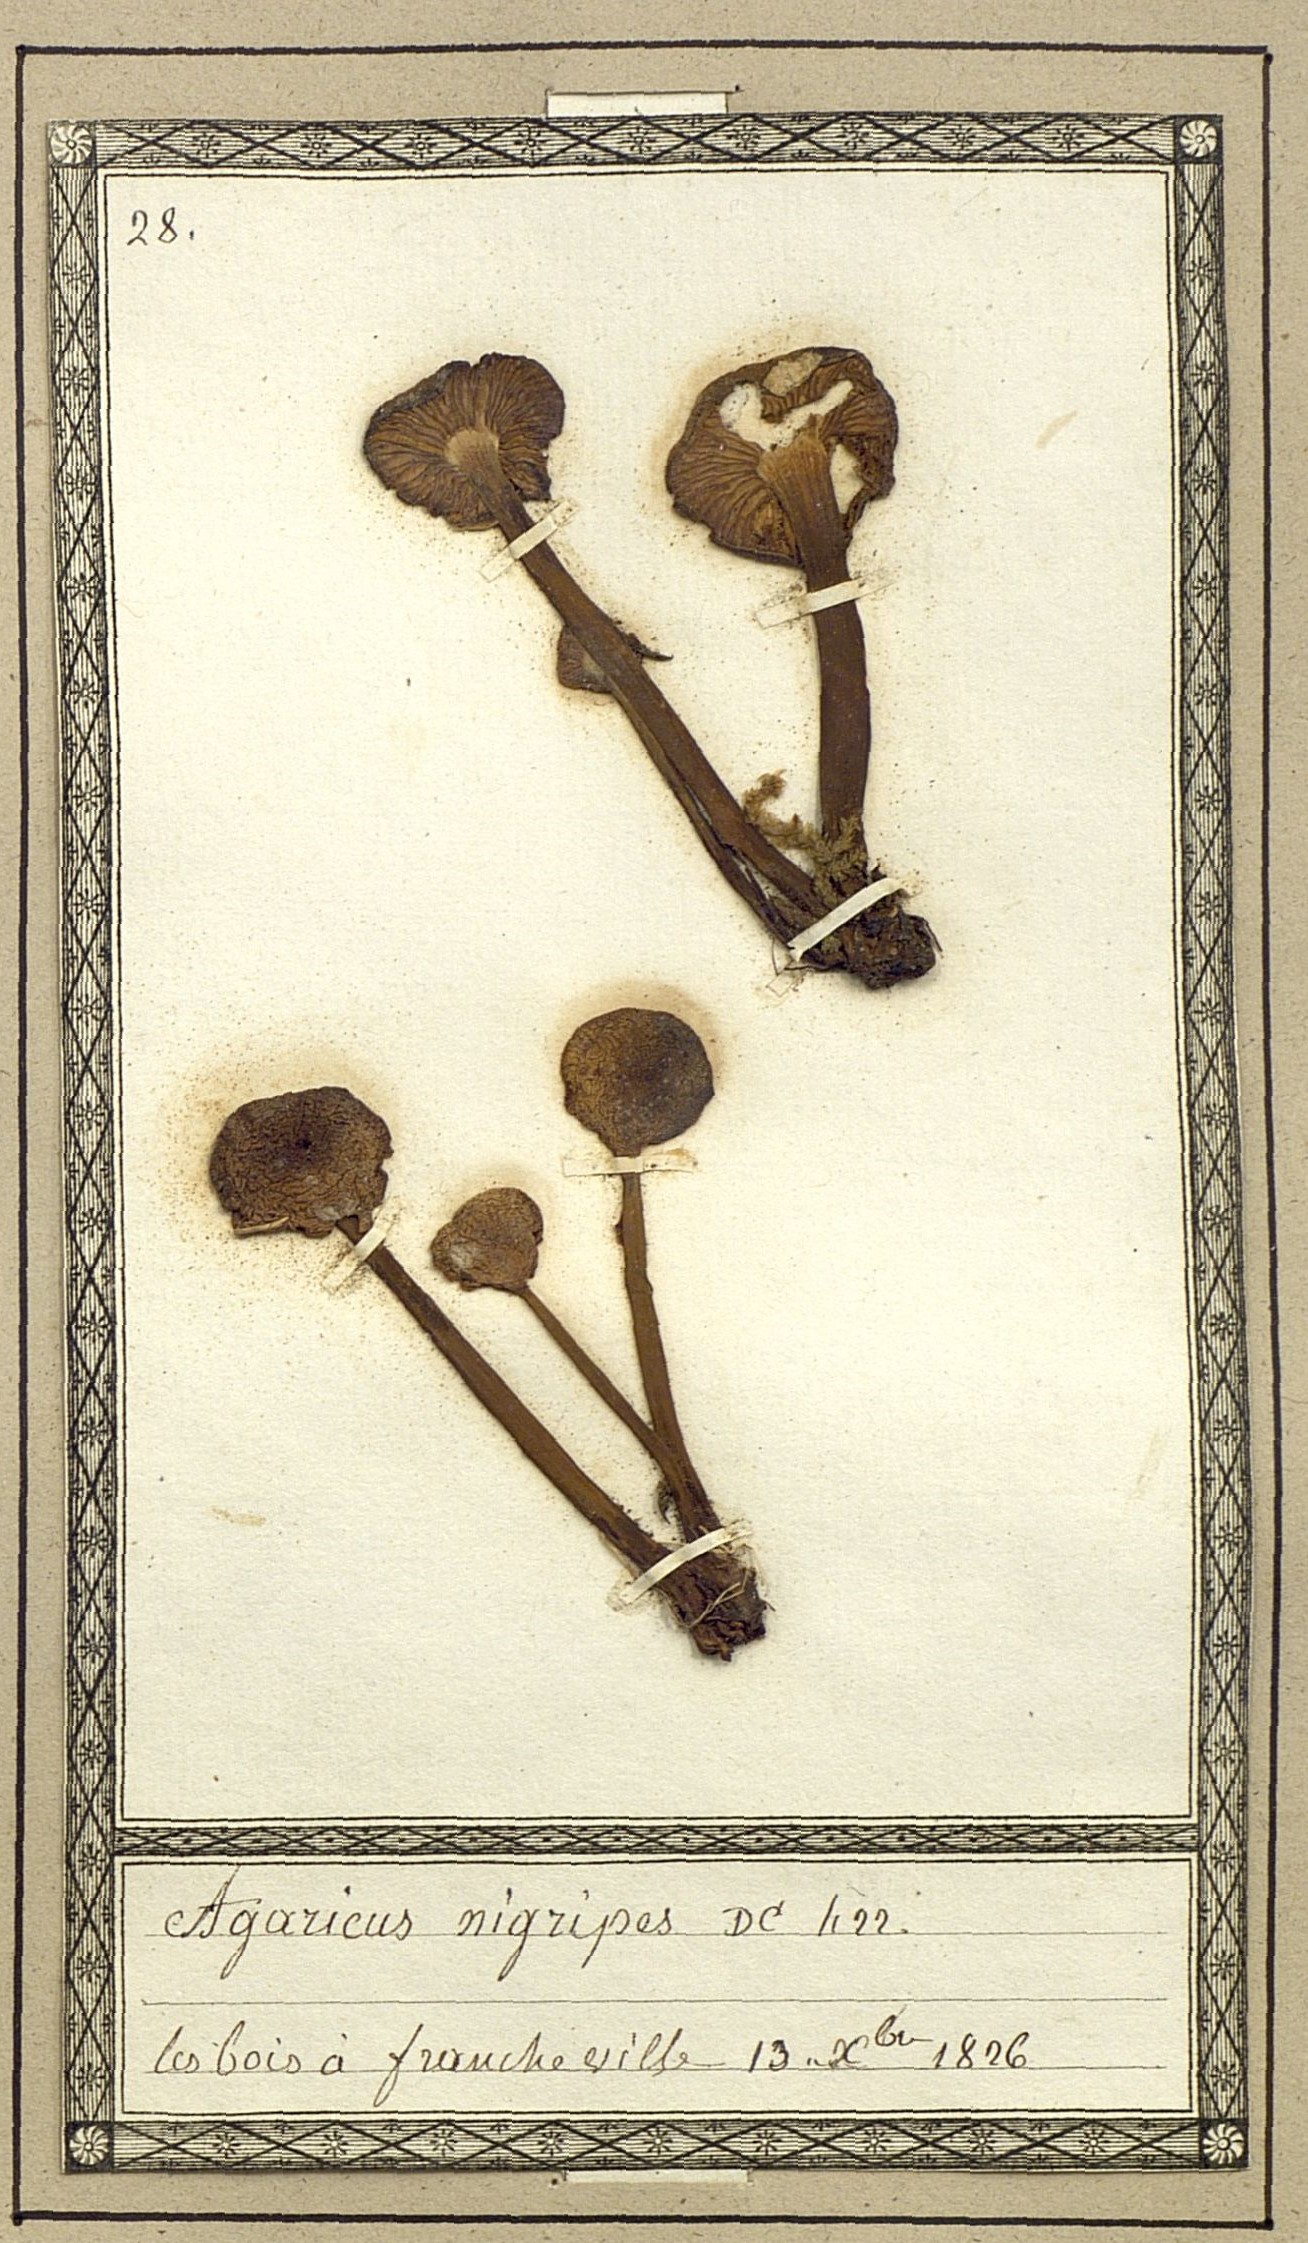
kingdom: Fungi
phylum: Basidiomycota
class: Agaricomycetes
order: Agaricales
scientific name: Agaricales
